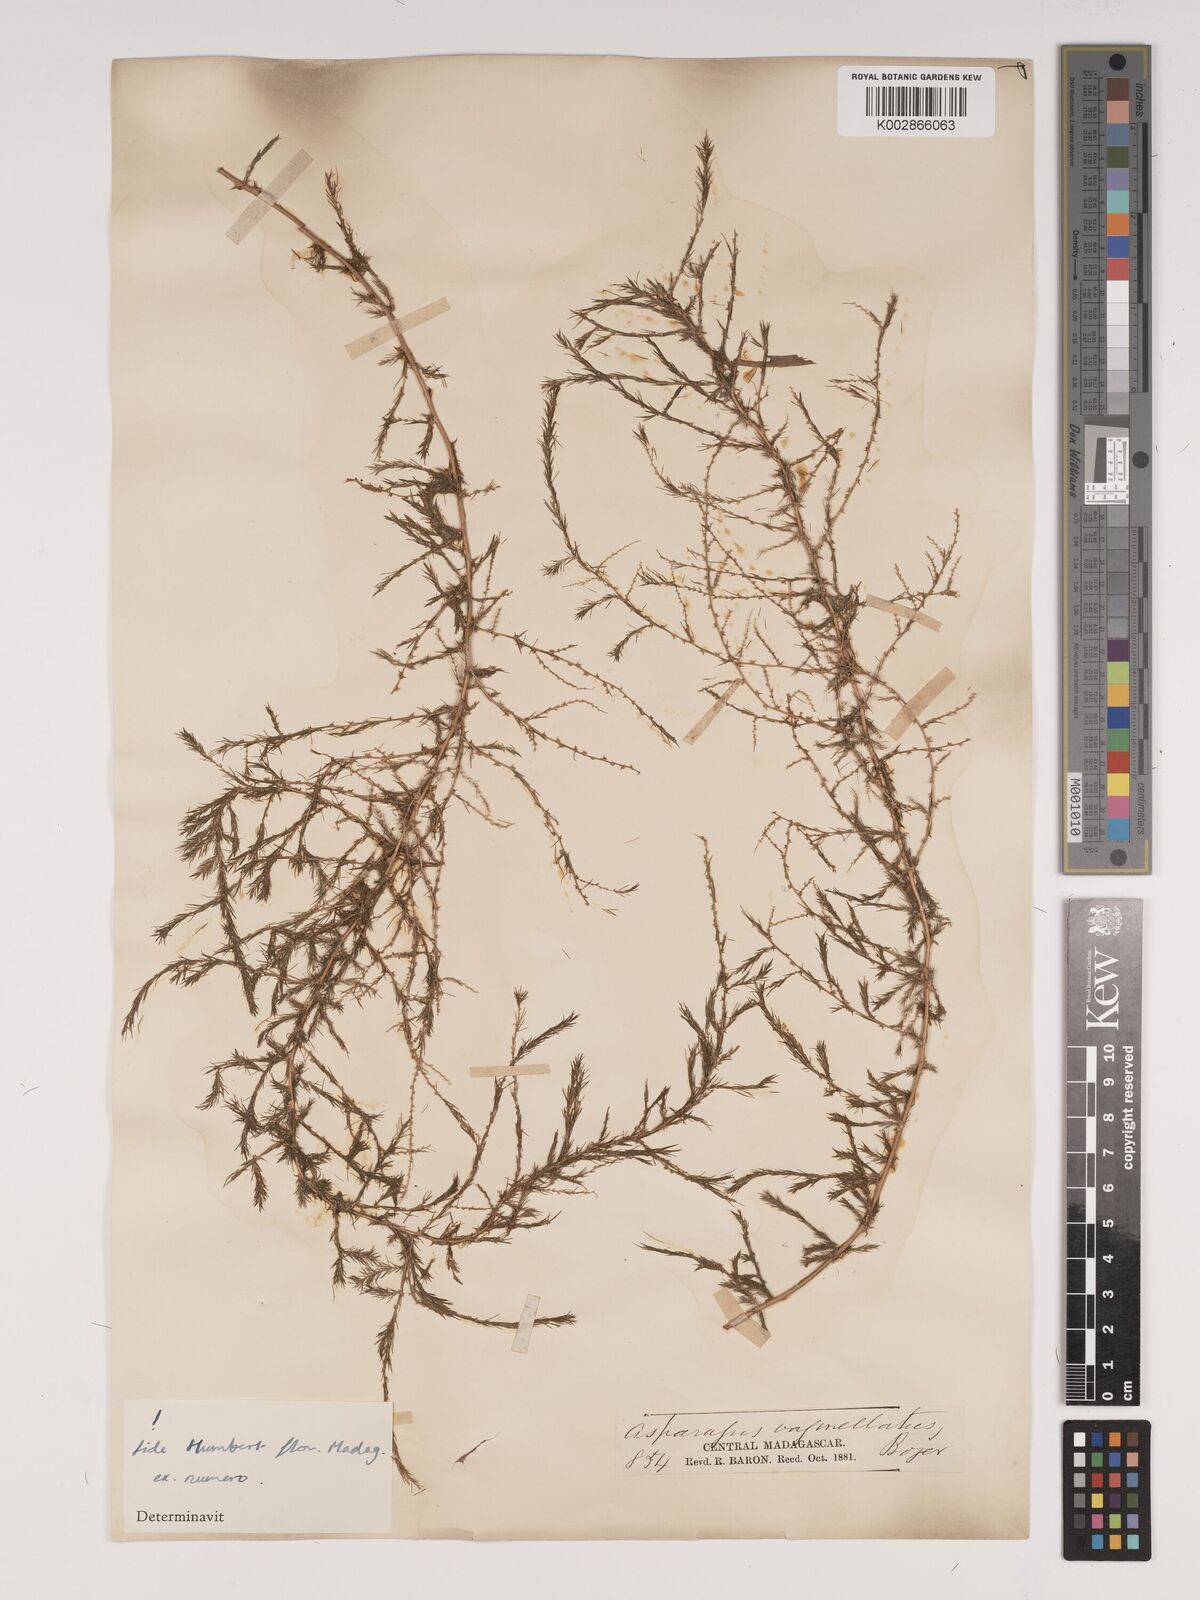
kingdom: Plantae
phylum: Tracheophyta
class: Liliopsida
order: Asparagales
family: Asparagaceae
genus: Asparagus
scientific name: Asparagus vaginellatus
